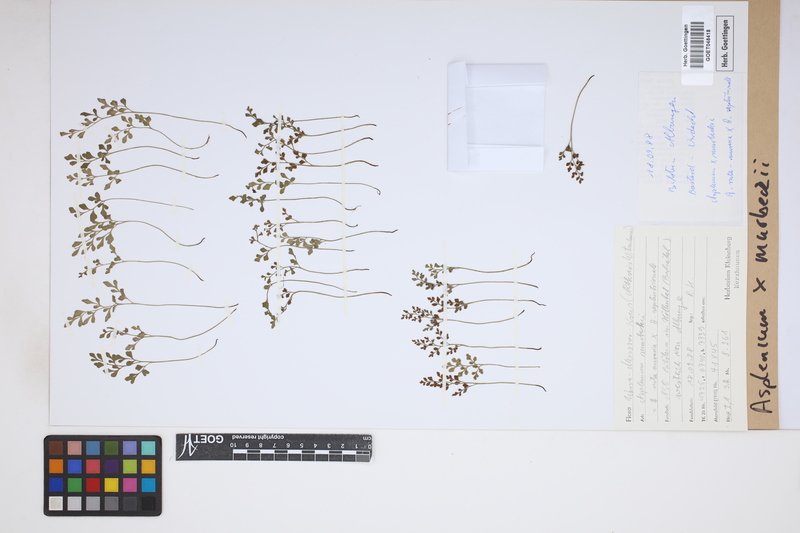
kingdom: Plantae
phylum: Tracheophyta
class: Polypodiopsida
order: Polypodiales
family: Aspleniaceae
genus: Asplenium
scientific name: Asplenium murbeckii
